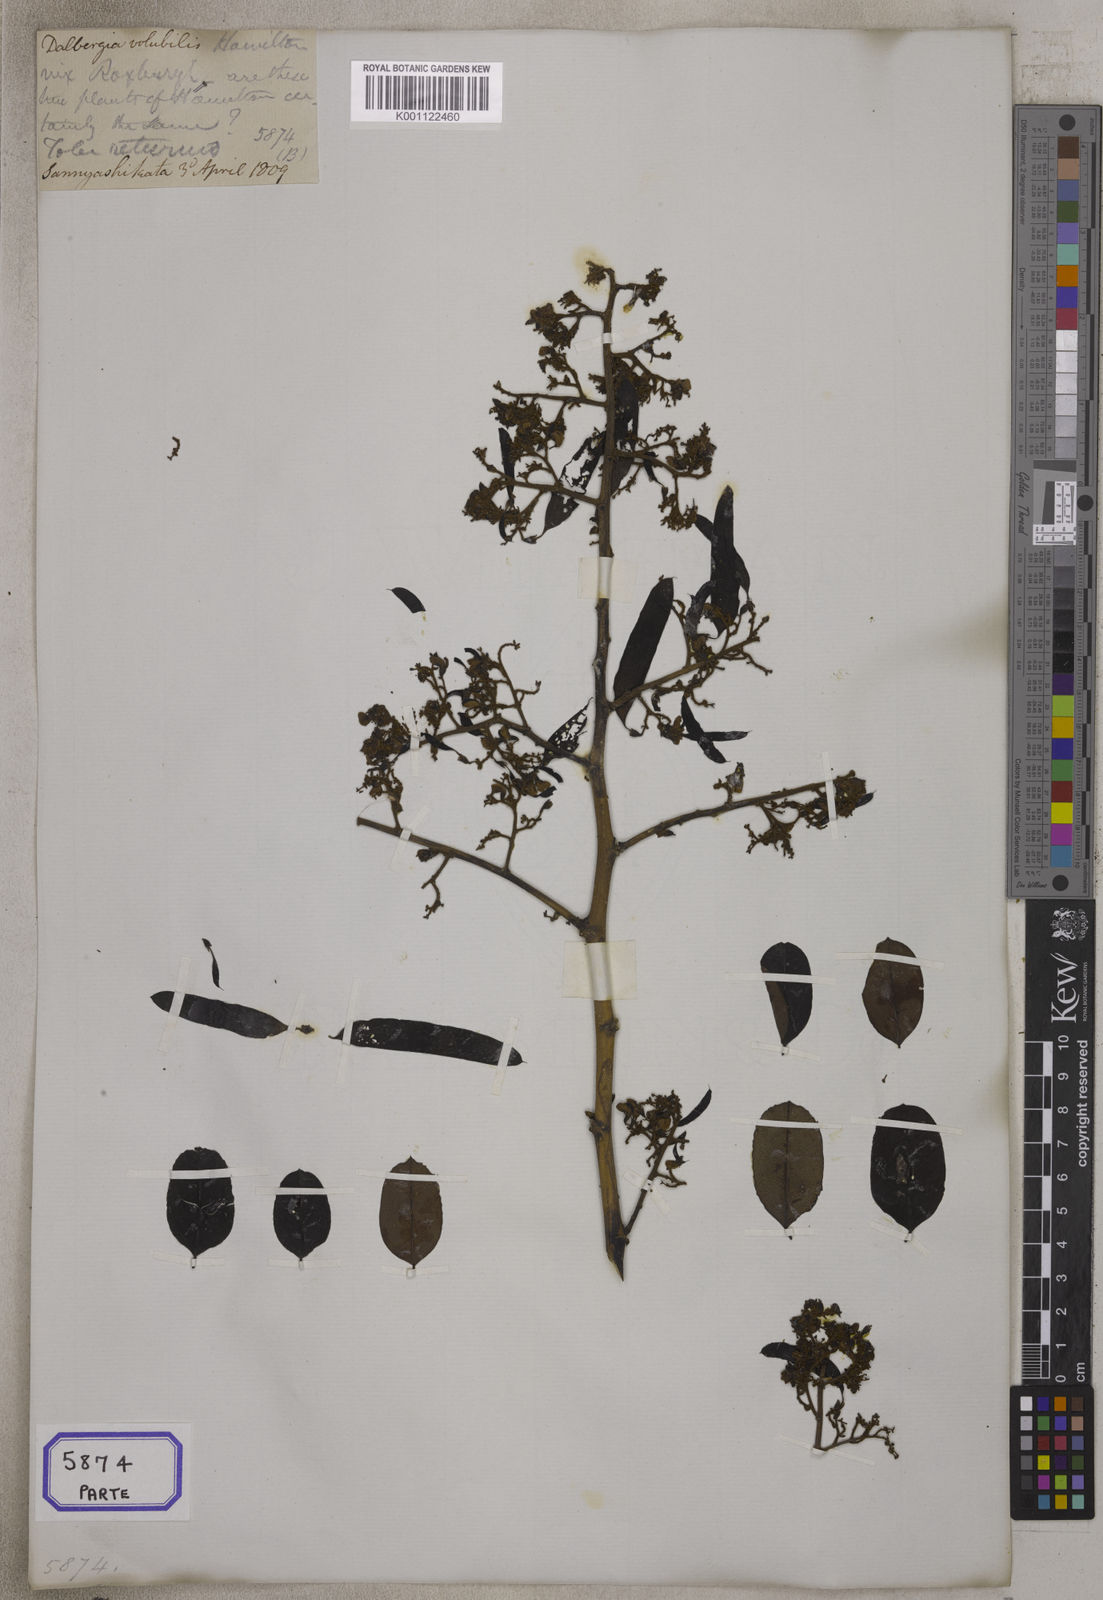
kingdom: Plantae
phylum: Tracheophyta
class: Magnoliopsida
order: Fabales
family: Fabaceae
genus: Dalbergia
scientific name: Dalbergia volubilis
